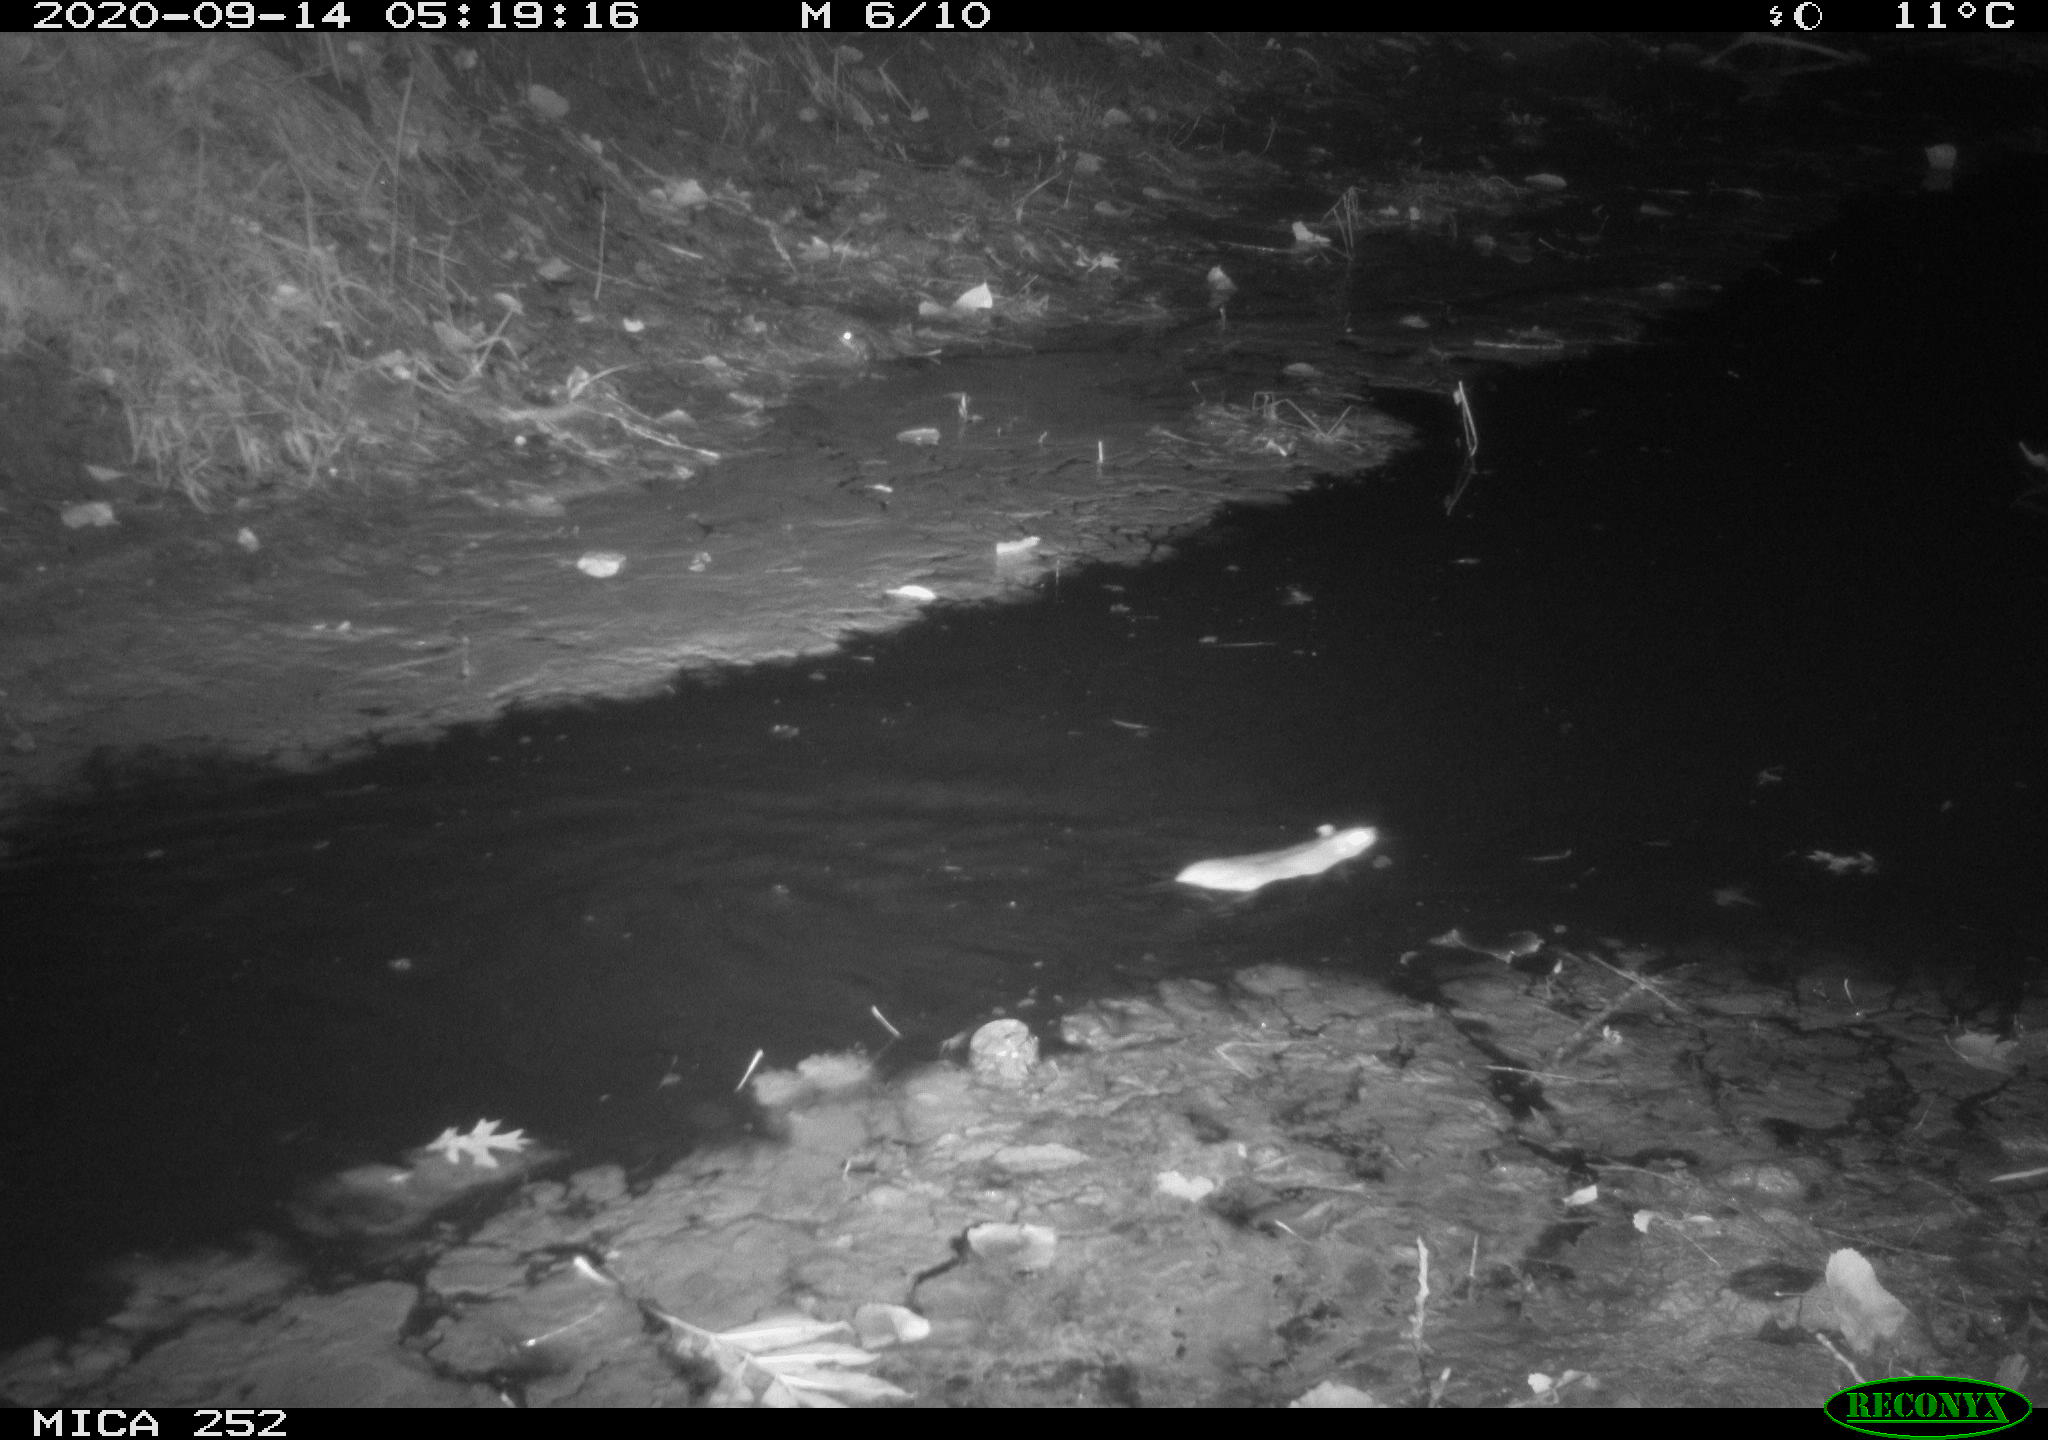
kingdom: Animalia
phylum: Chordata
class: Mammalia
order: Rodentia
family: Muridae
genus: Rattus
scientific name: Rattus norvegicus
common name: Brown rat
